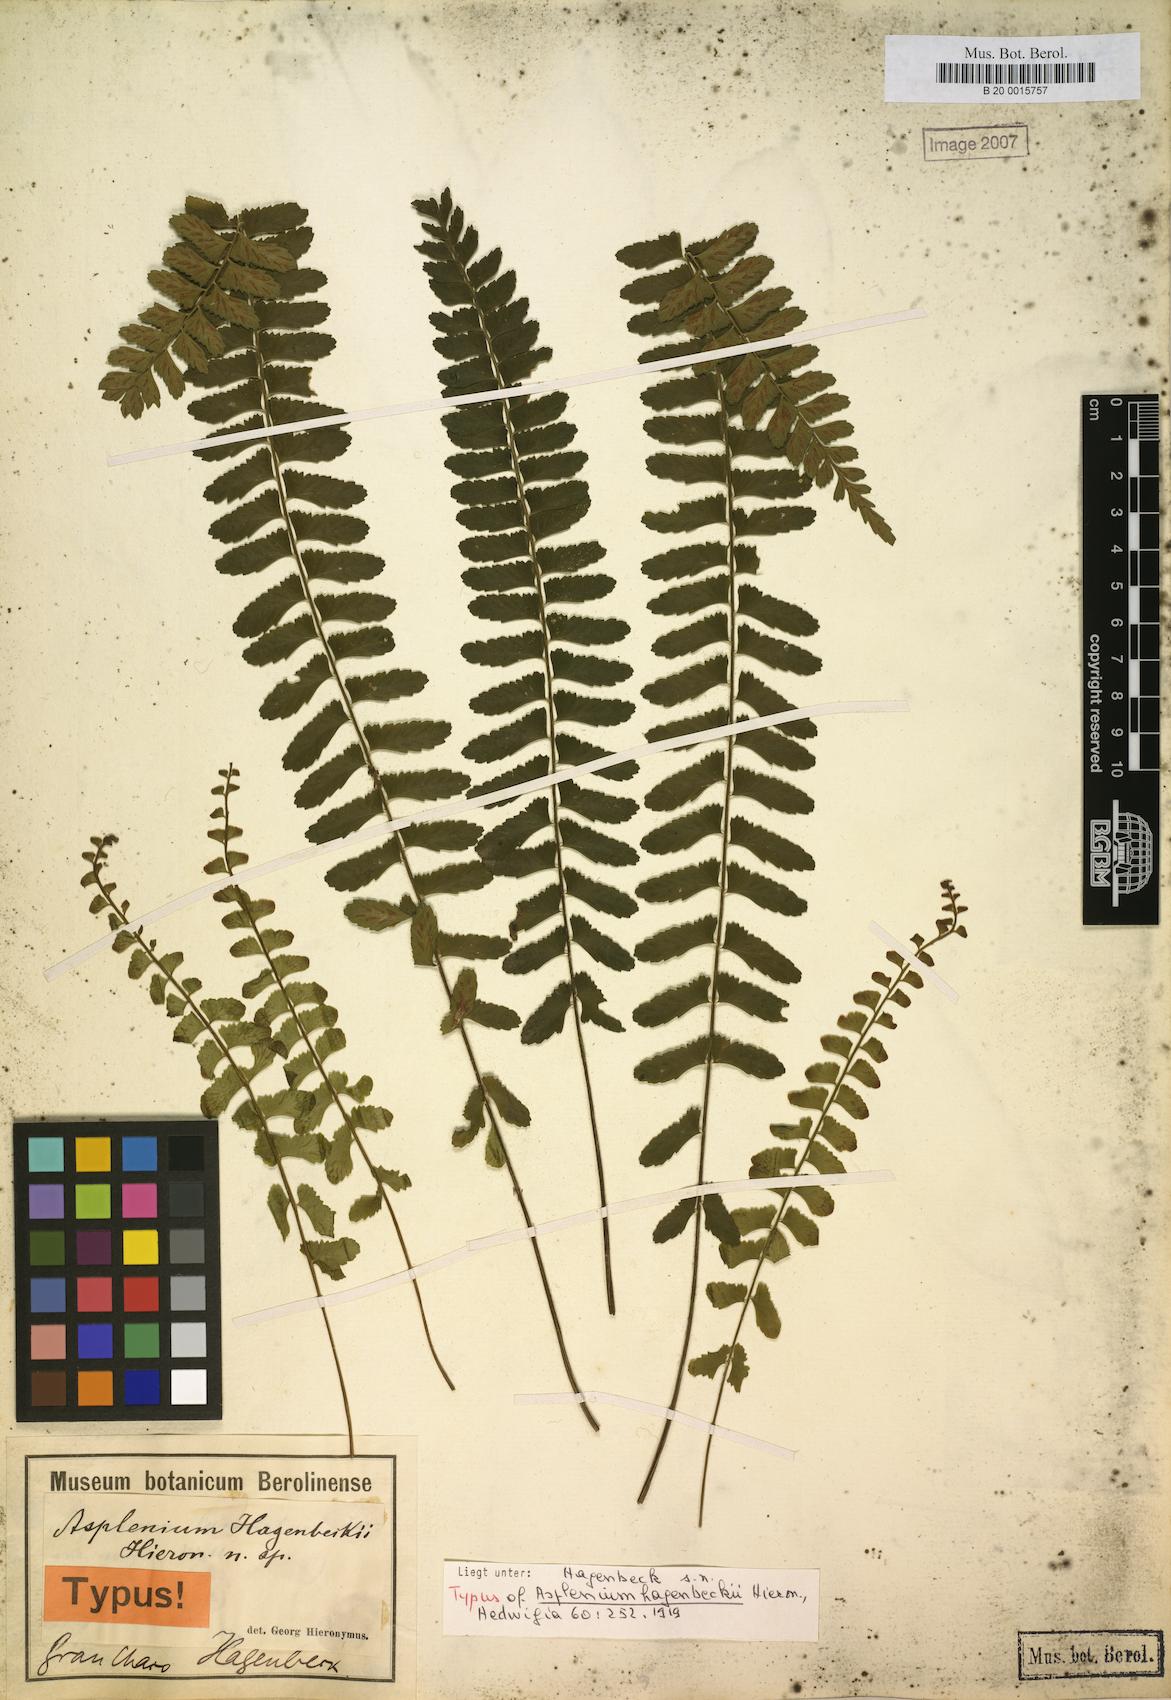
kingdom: Plantae
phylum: Tracheophyta
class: Polypodiopsida
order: Polypodiales
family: Aspleniaceae
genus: Asplenium
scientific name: Asplenium hagenbeckii
